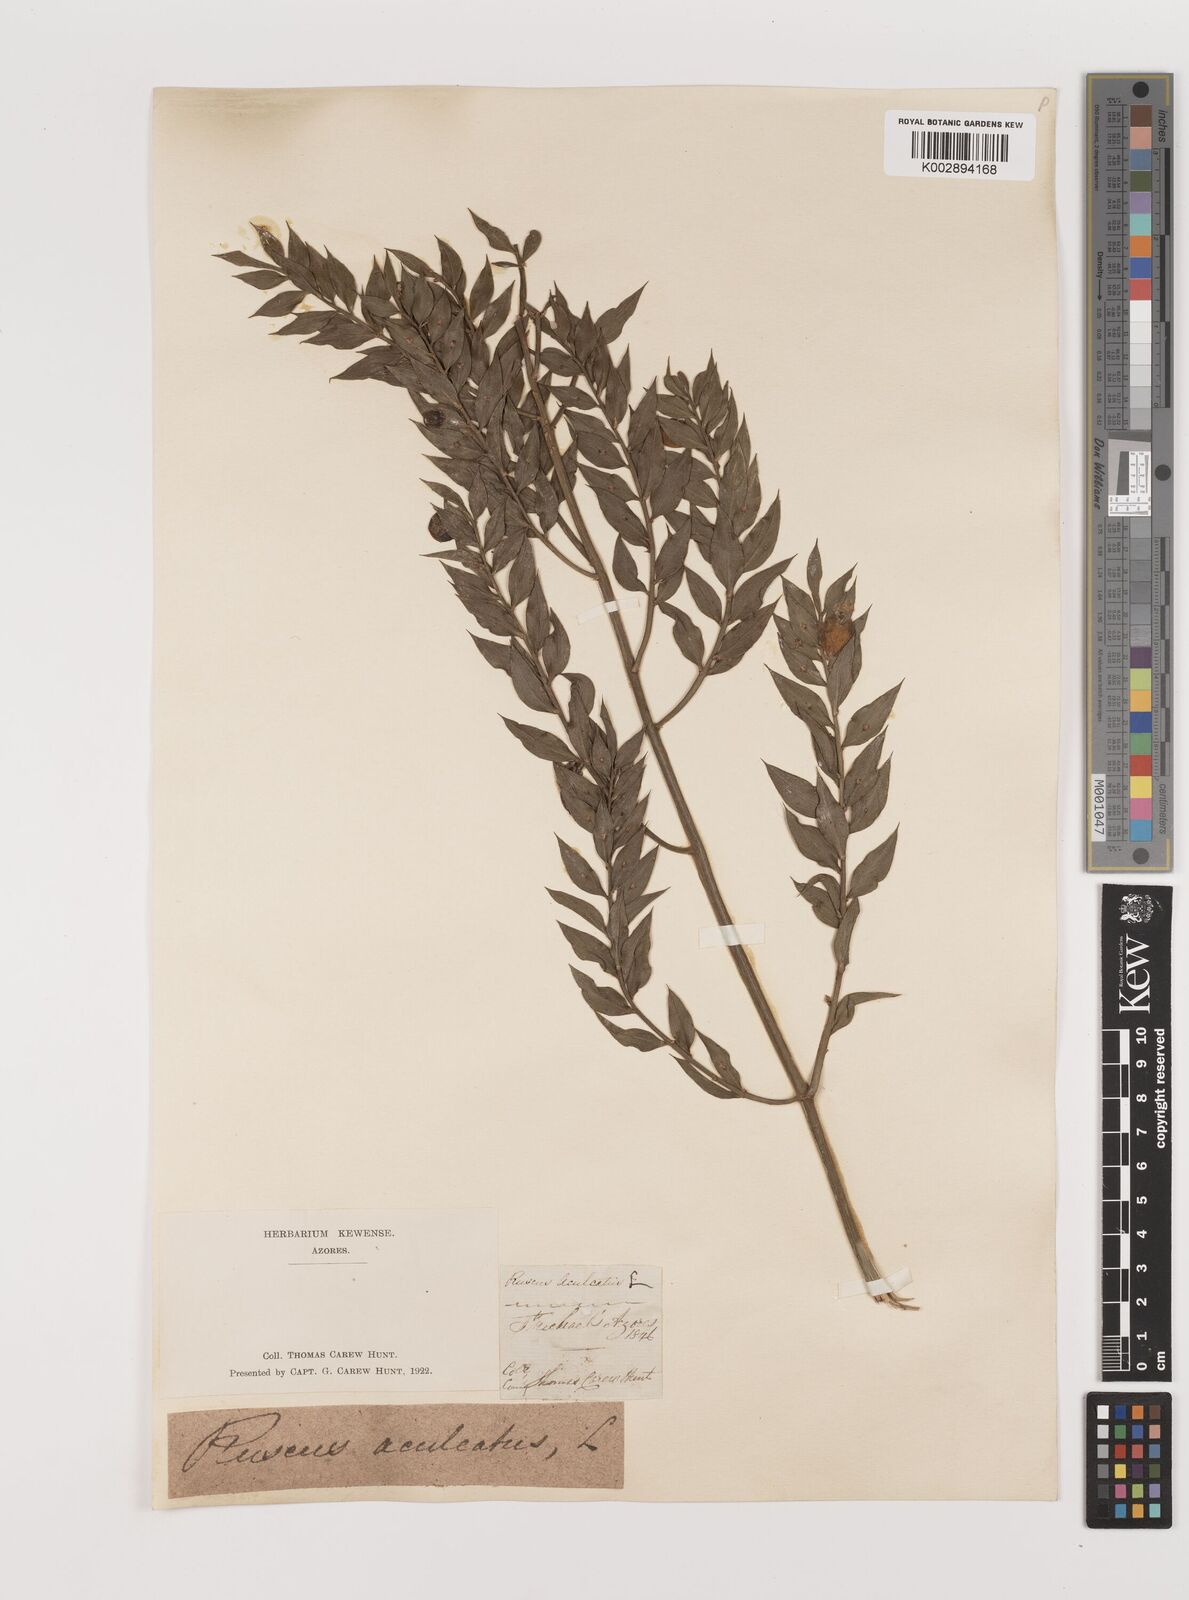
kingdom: Plantae
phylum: Tracheophyta
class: Liliopsida
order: Asparagales
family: Asparagaceae
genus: Ruscus
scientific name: Ruscus aculeatus
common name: Butcher's-broom
